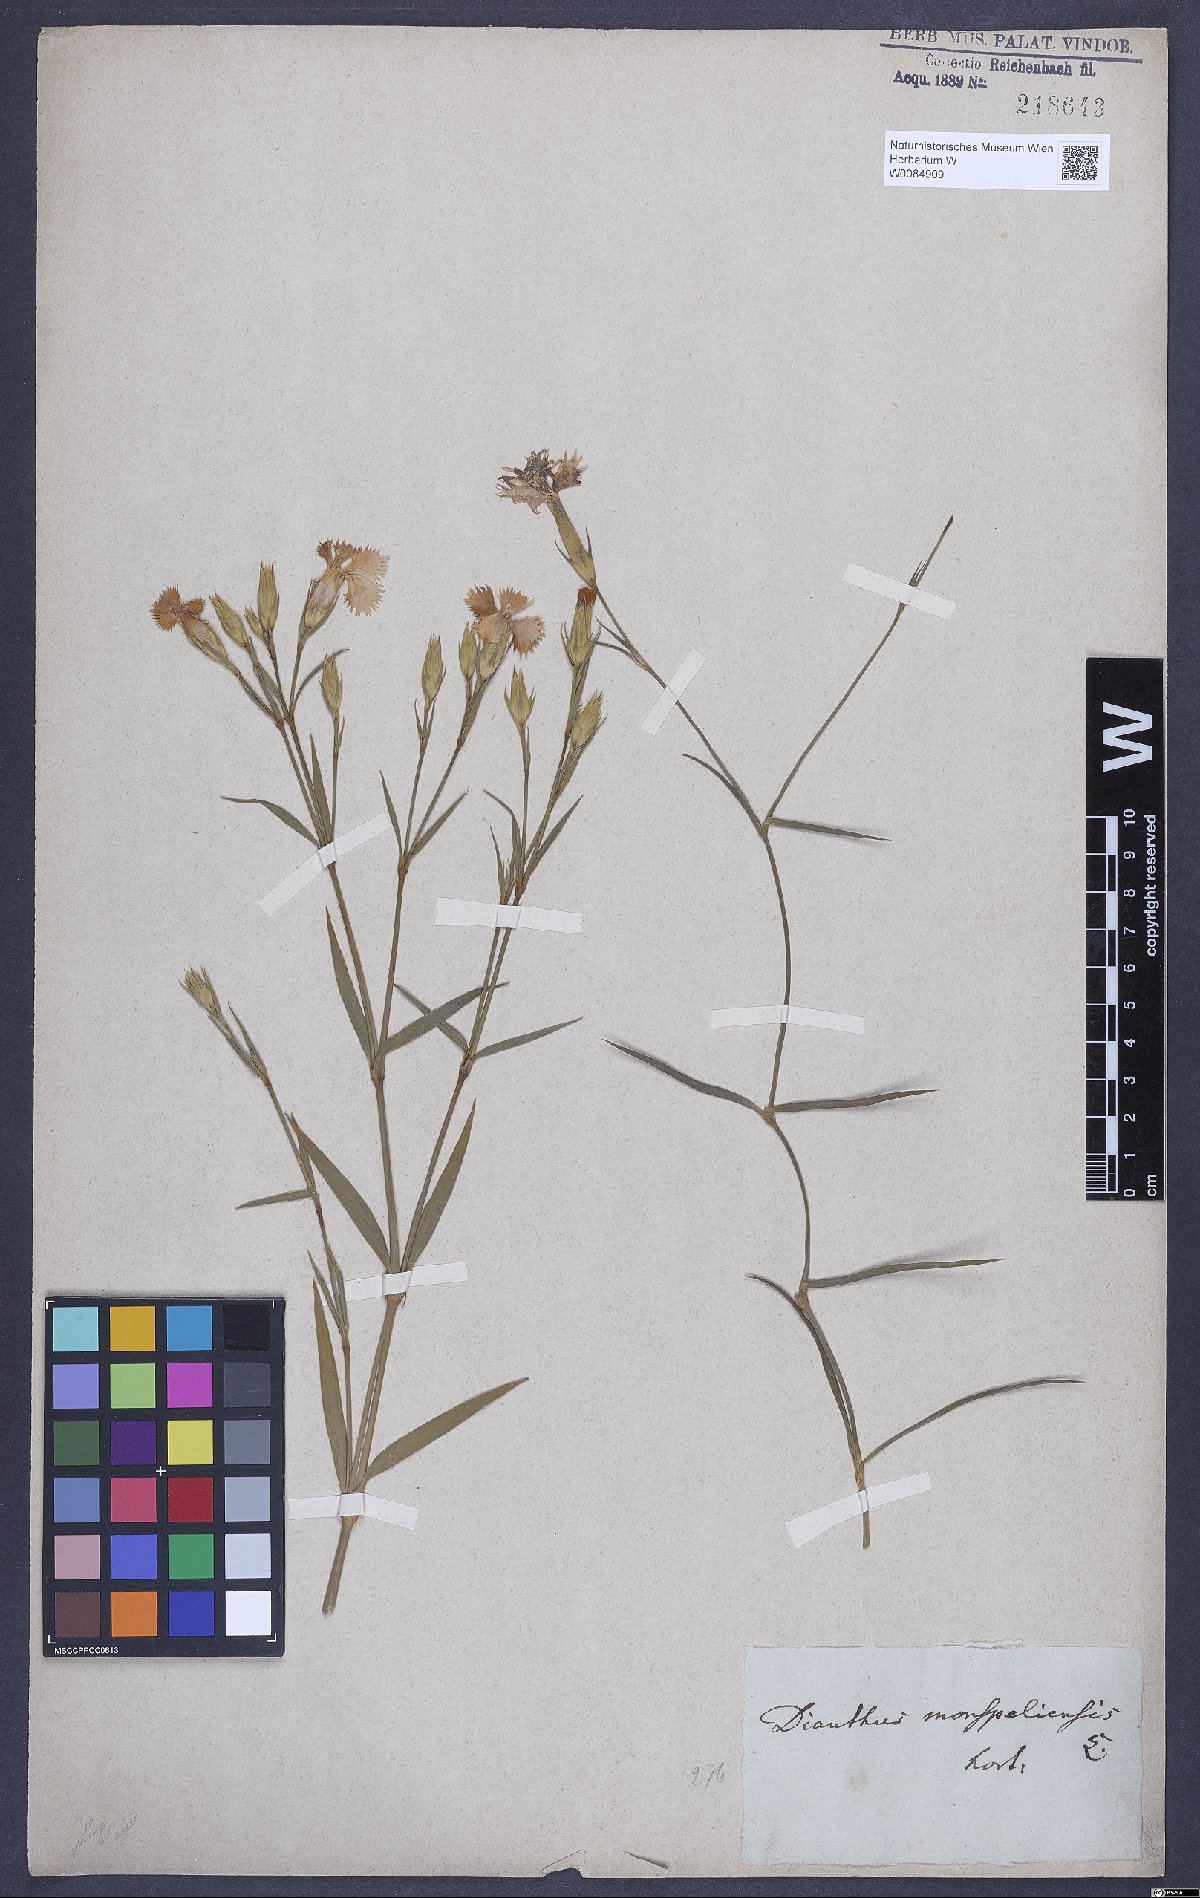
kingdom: Plantae
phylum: Tracheophyta
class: Magnoliopsida
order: Caryophyllales
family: Caryophyllaceae
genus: Dianthus
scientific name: Dianthus hyssopifolius
